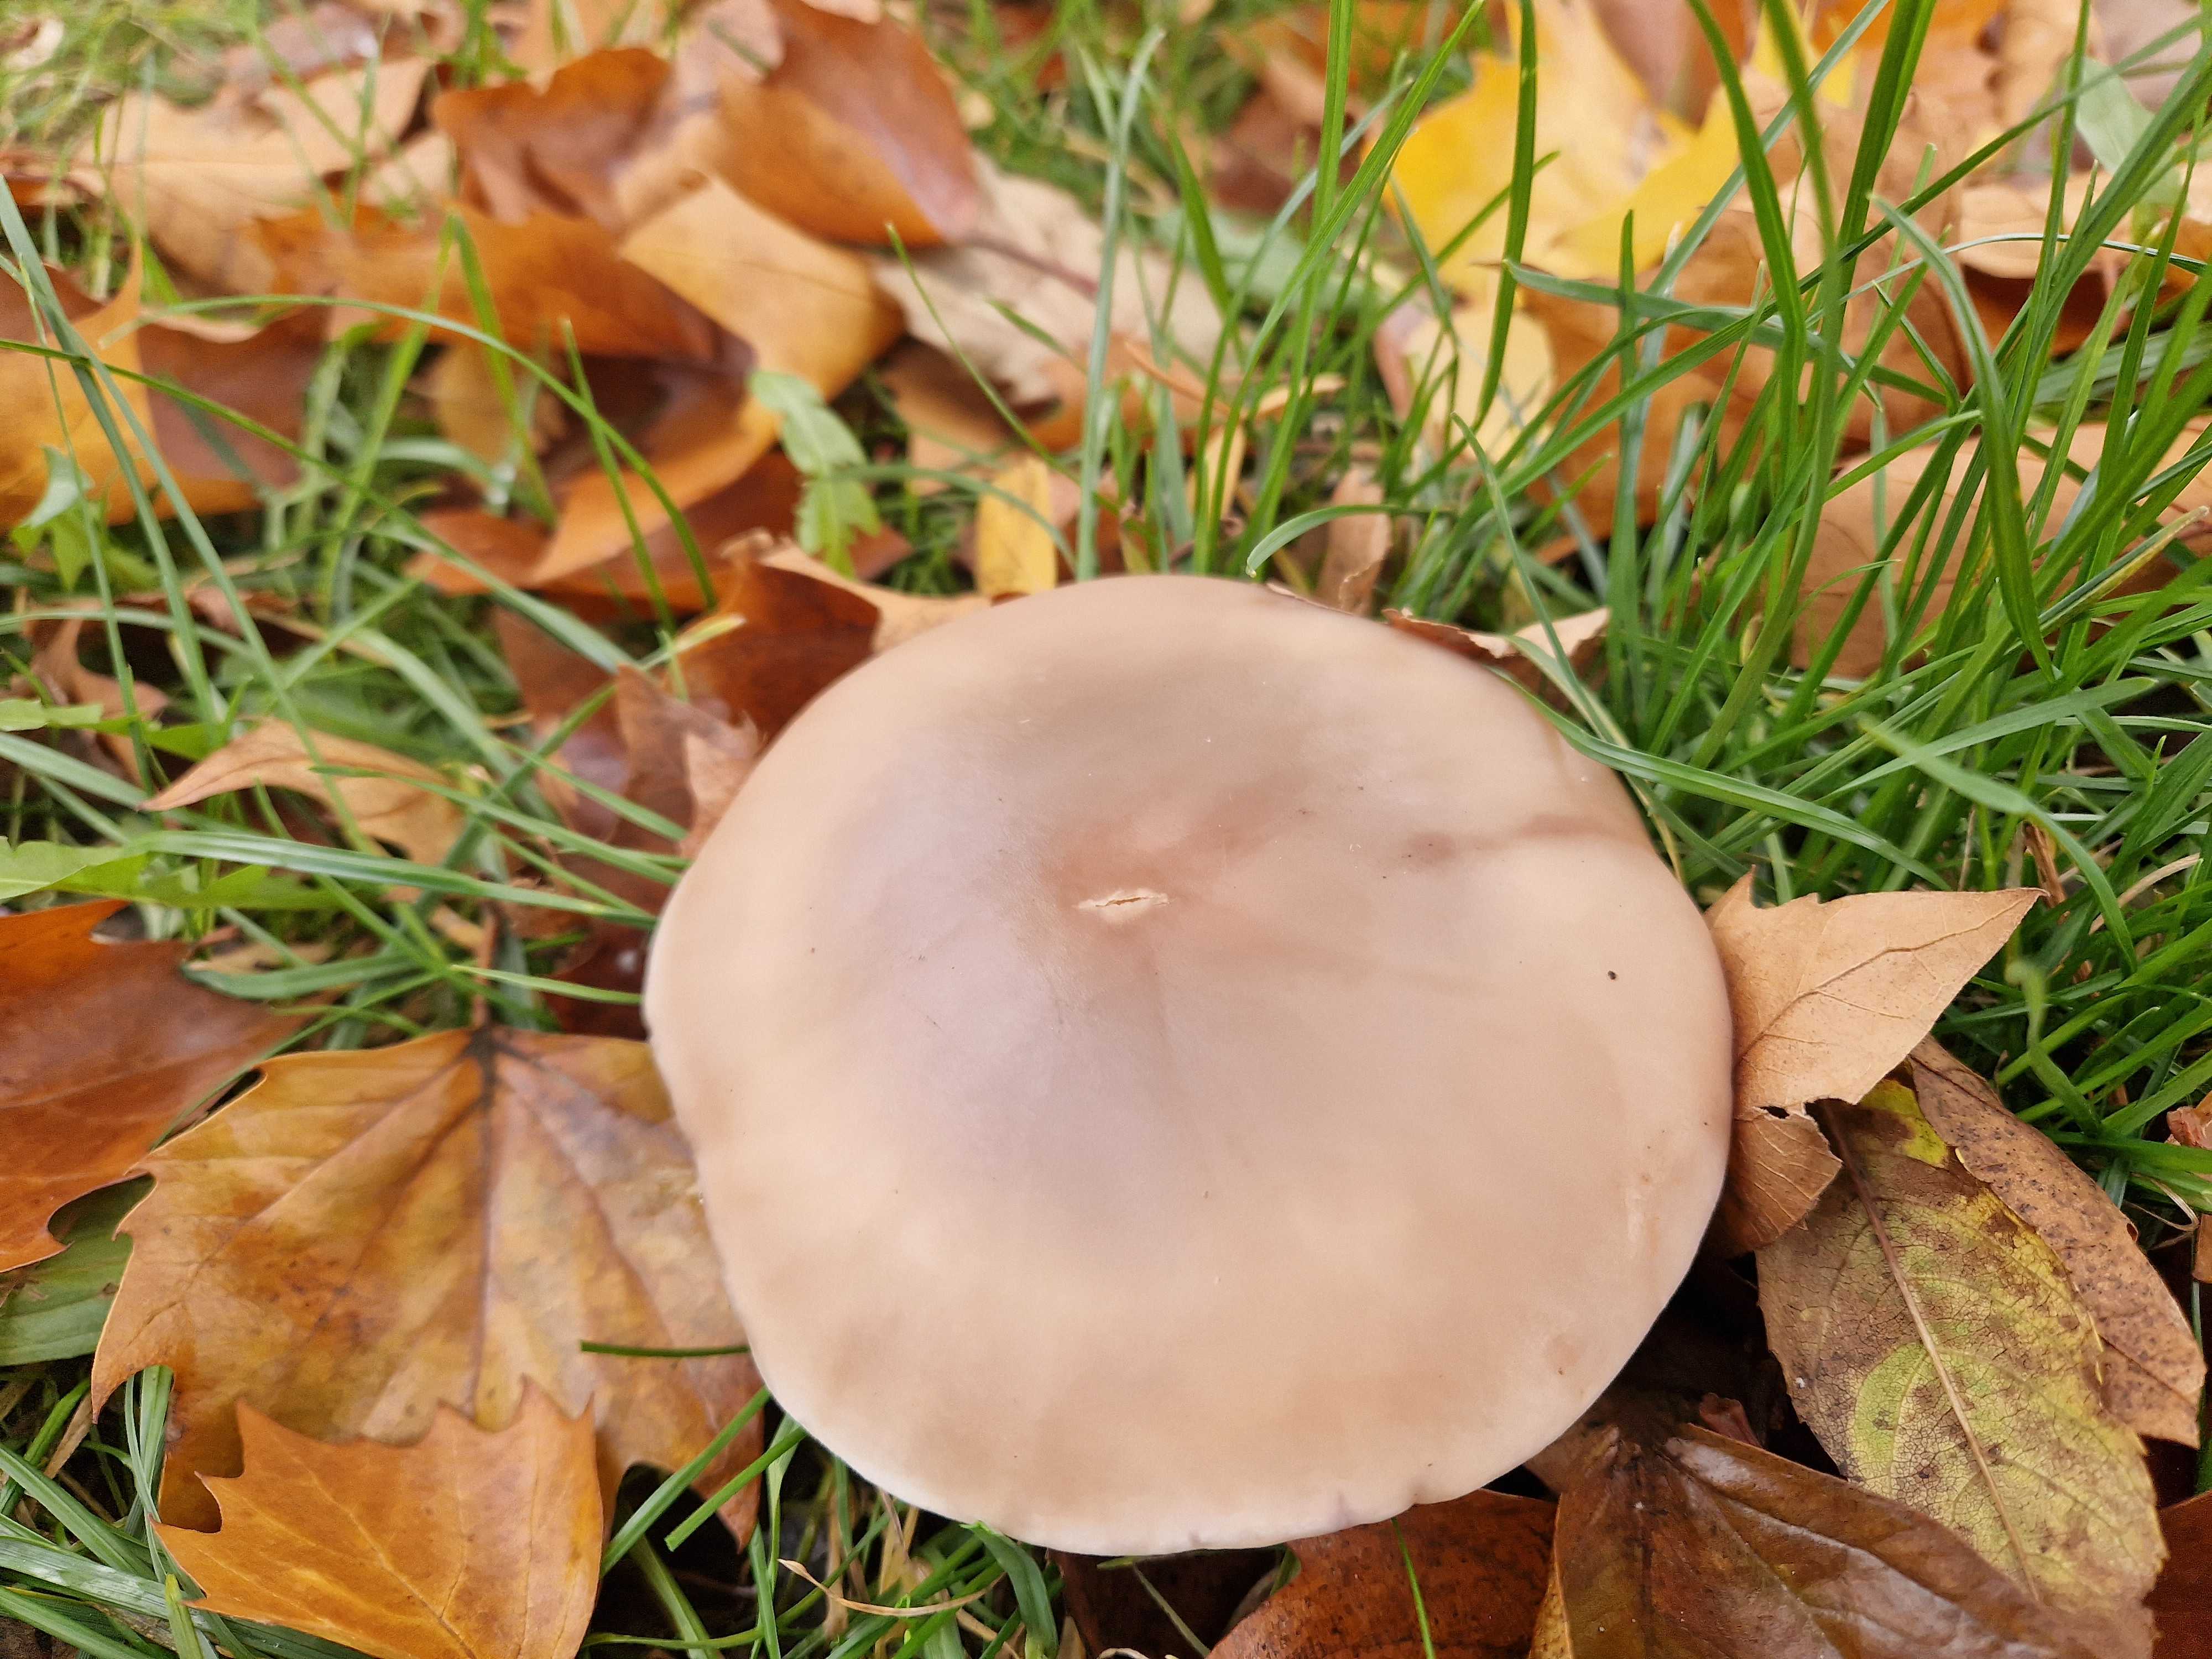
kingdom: Fungi
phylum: Basidiomycota
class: Agaricomycetes
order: Agaricales
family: Tricholomataceae
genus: Lepista
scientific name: Lepista personata
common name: bleg hekseringshat
